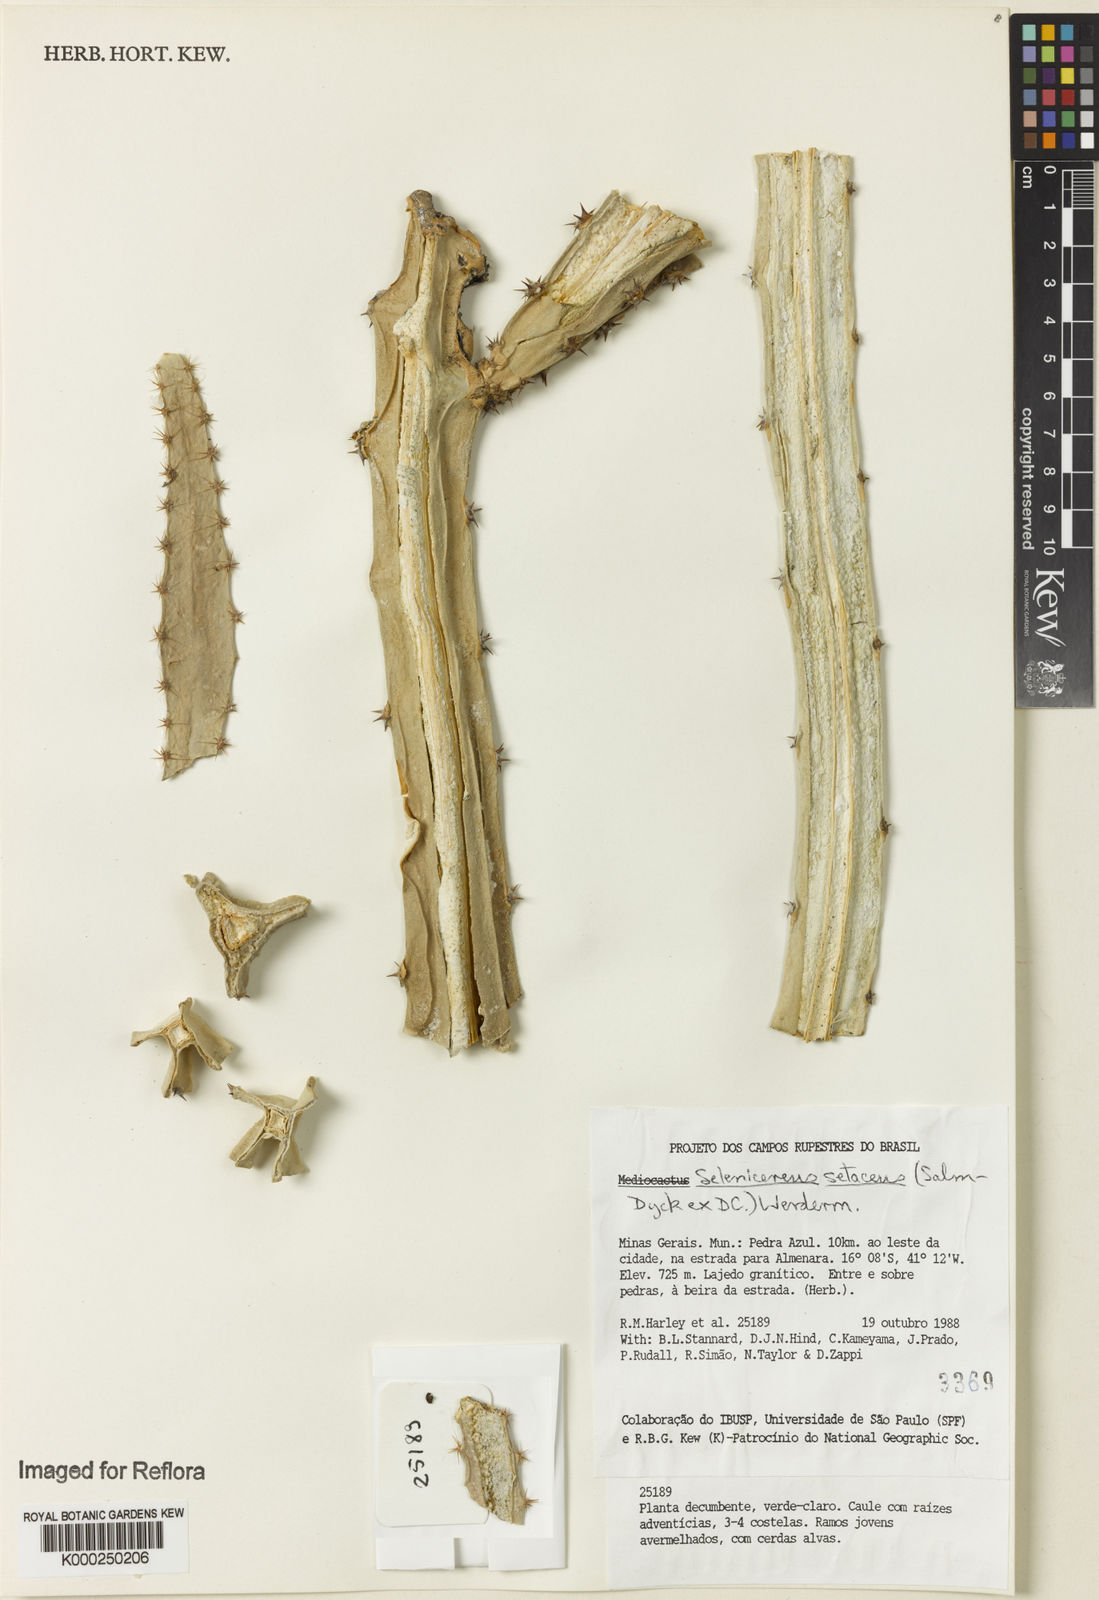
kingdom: Plantae
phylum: Tracheophyta
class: Magnoliopsida
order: Caryophyllales
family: Cactaceae
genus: Selenicereus
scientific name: Selenicereus
